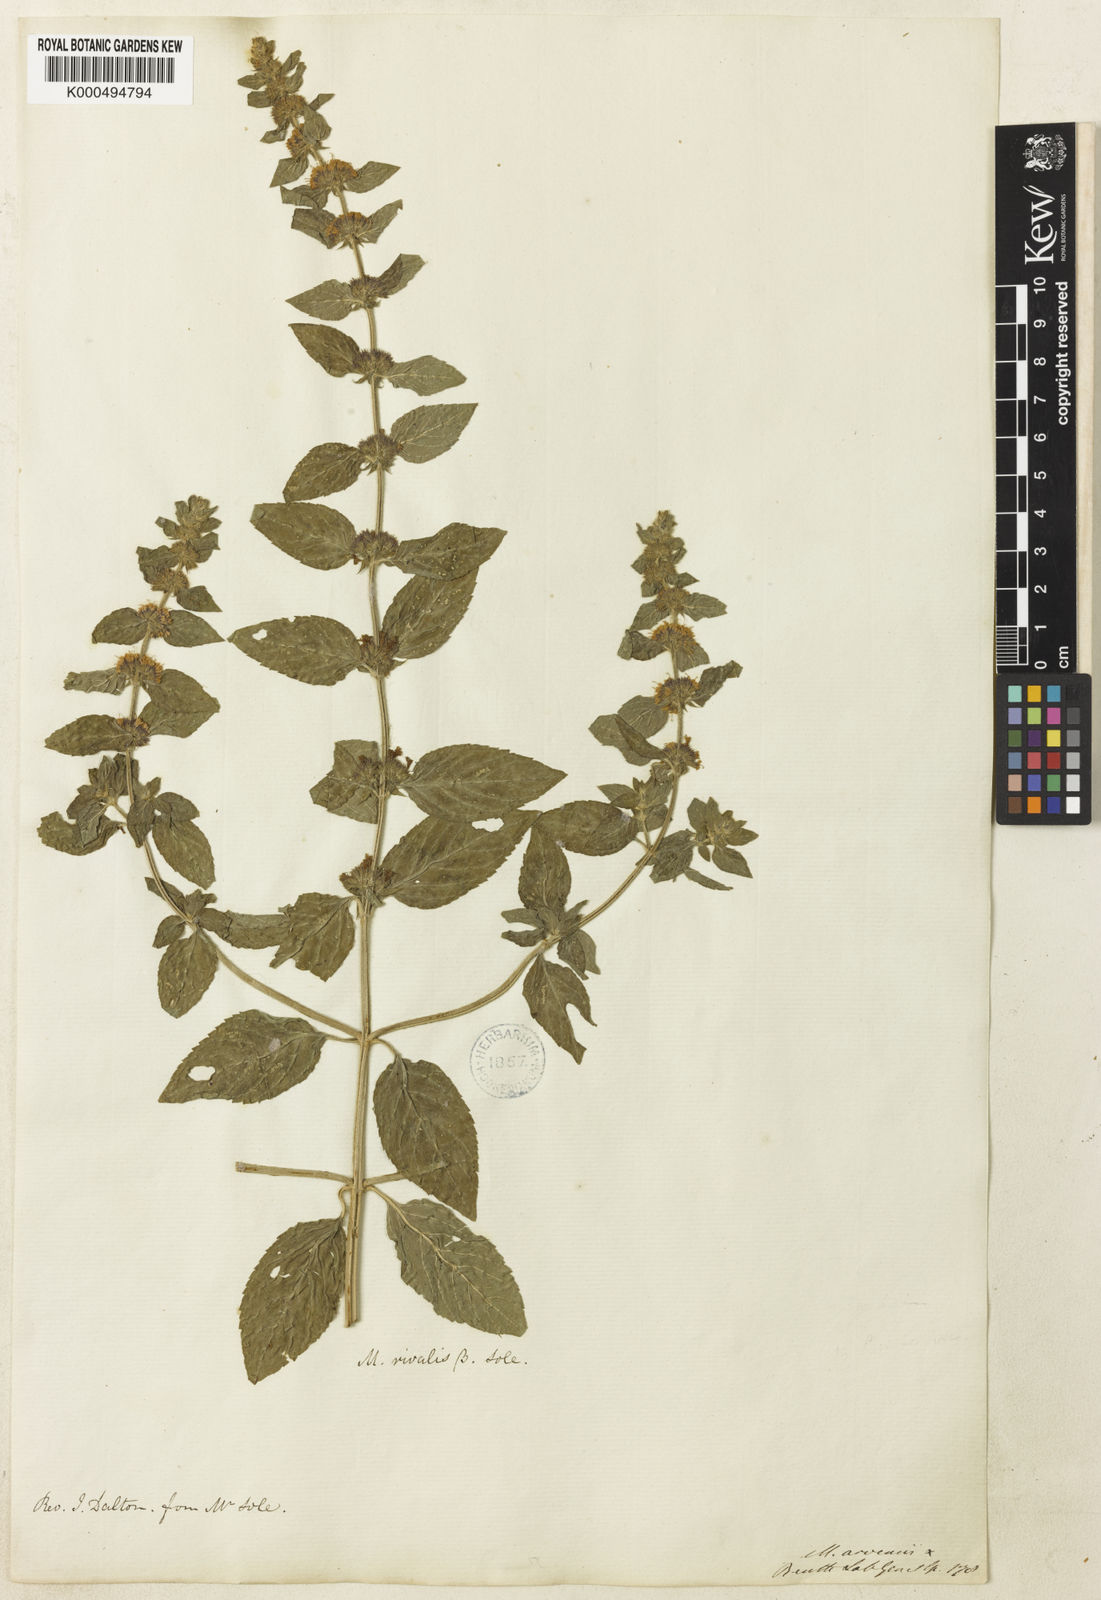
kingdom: Plantae
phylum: Tracheophyta
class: Magnoliopsida
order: Lamiales
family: Lamiaceae
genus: Mentha
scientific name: Mentha verticillata
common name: Mint
